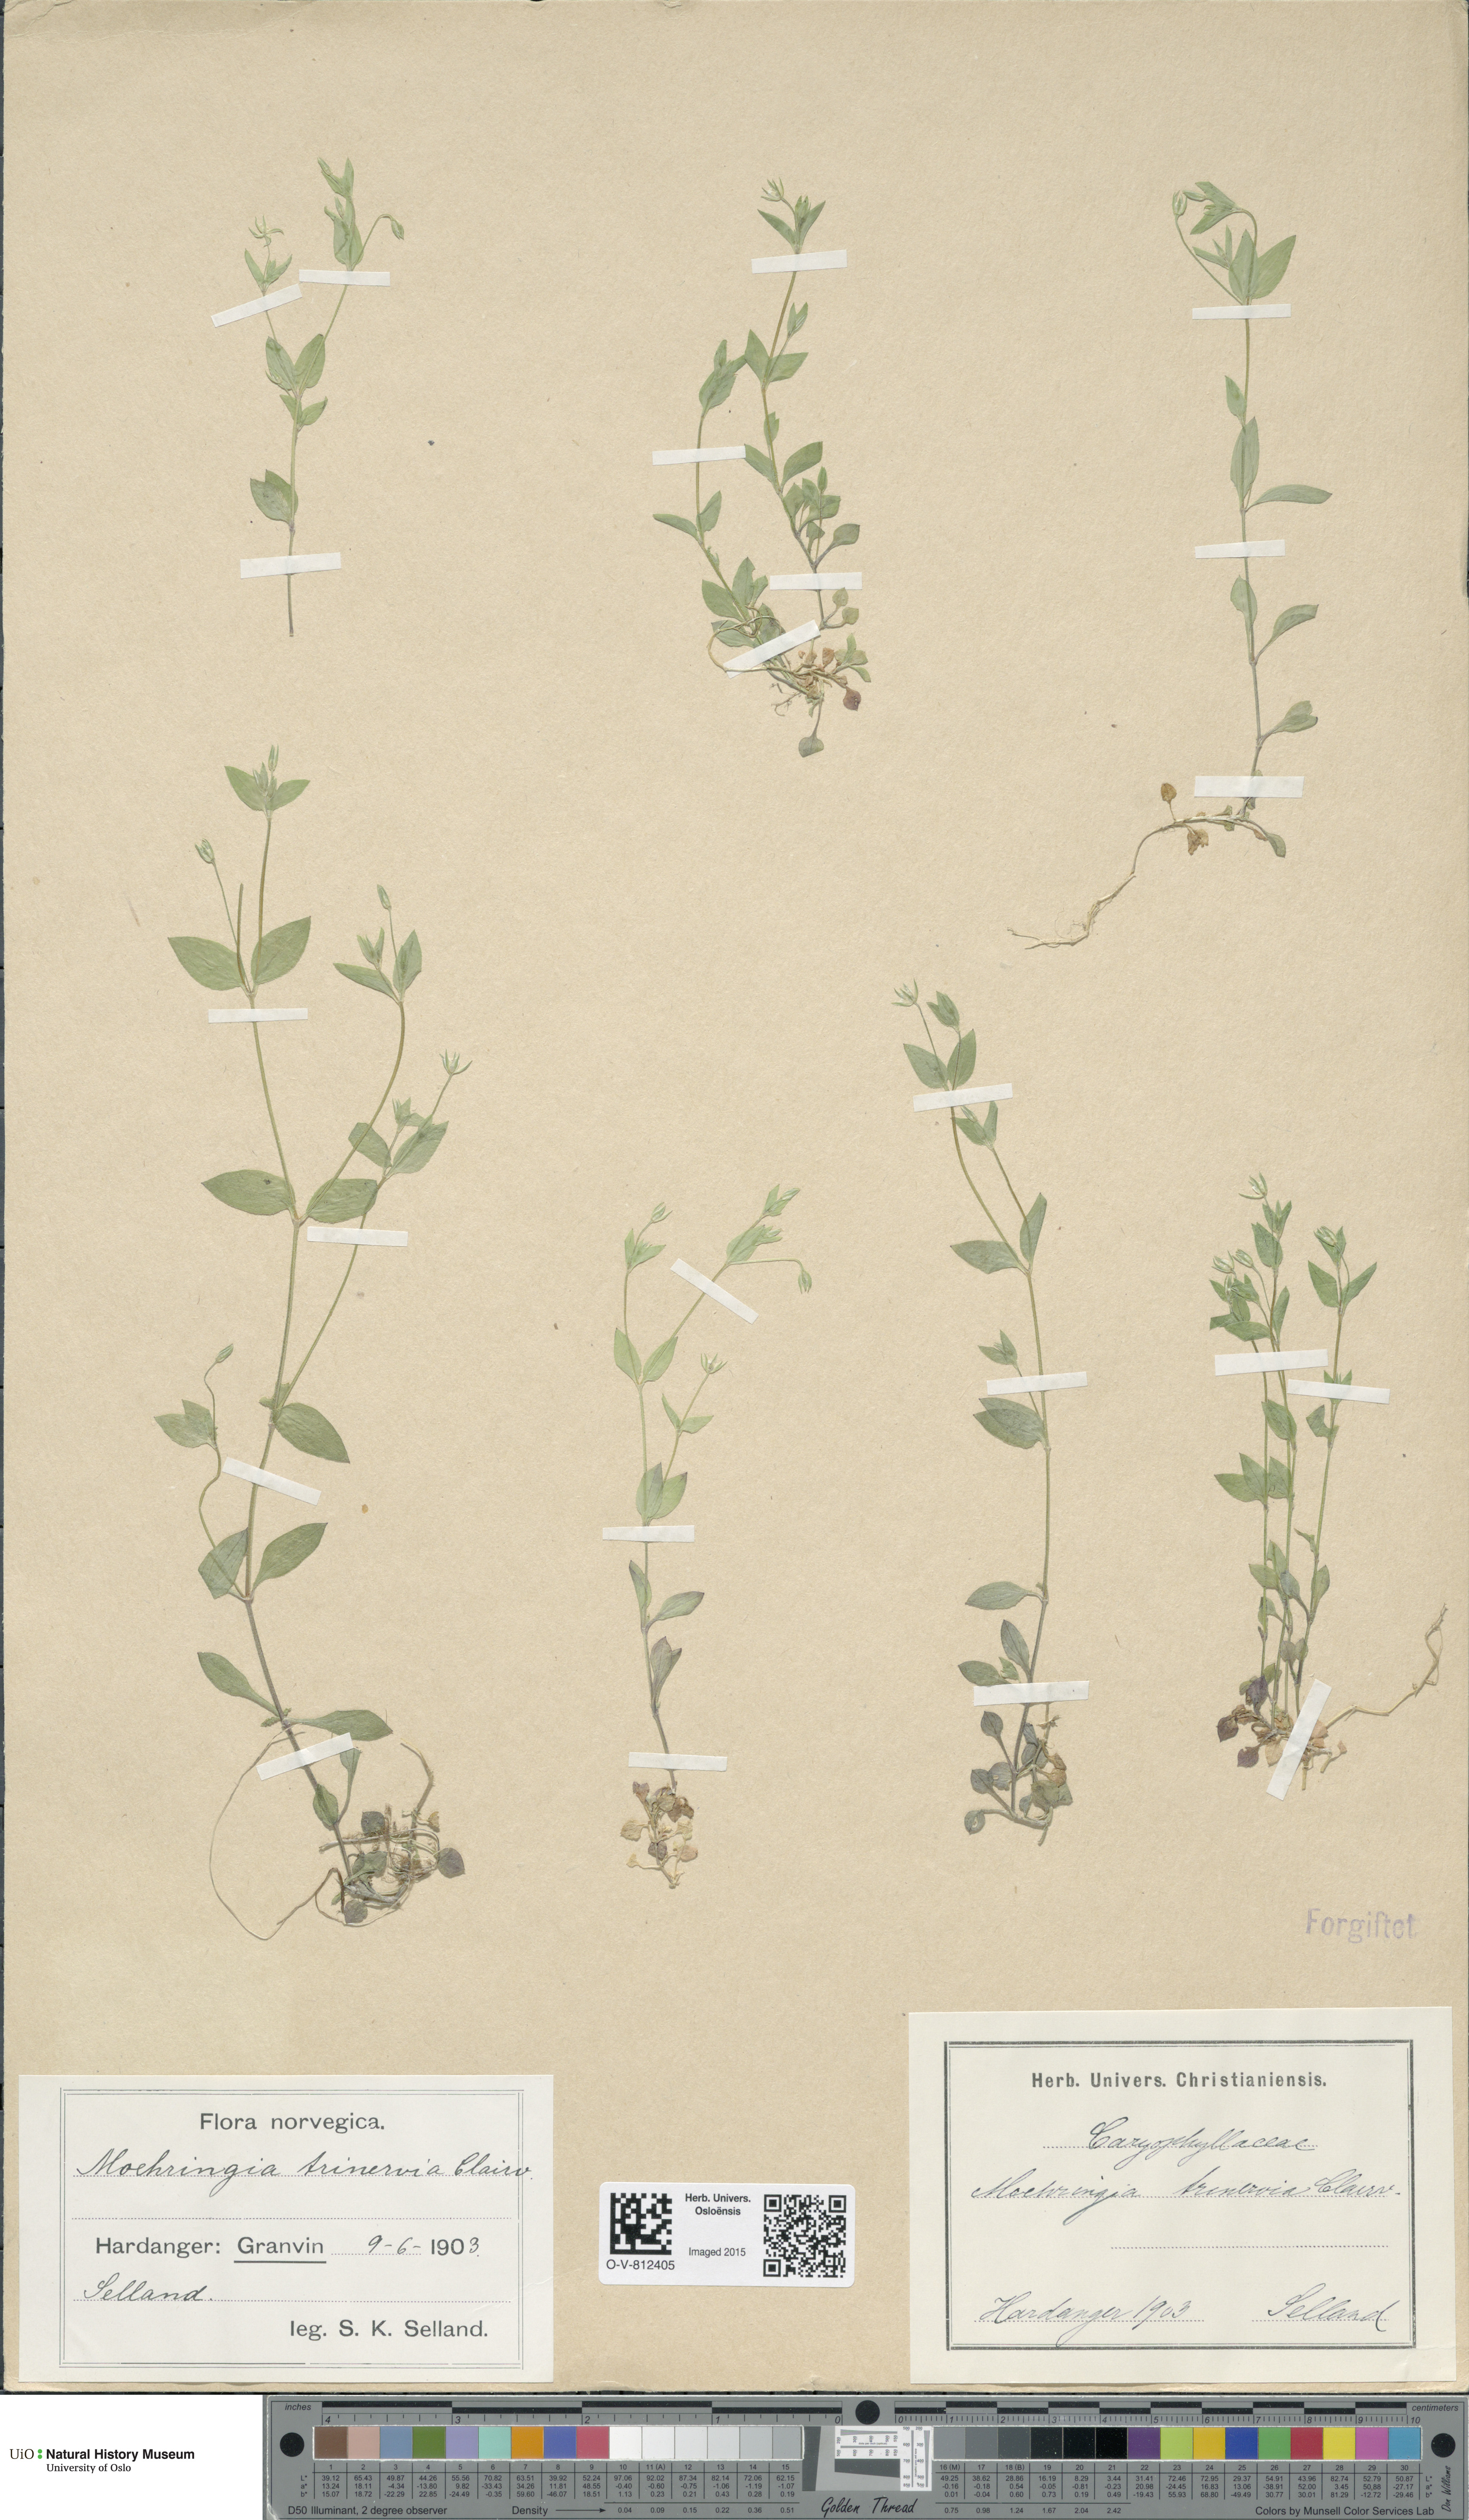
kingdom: Plantae
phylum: Tracheophyta
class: Magnoliopsida
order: Caryophyllales
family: Caryophyllaceae
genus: Moehringia
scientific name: Moehringia trinervia
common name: Three-nerved sandwort
